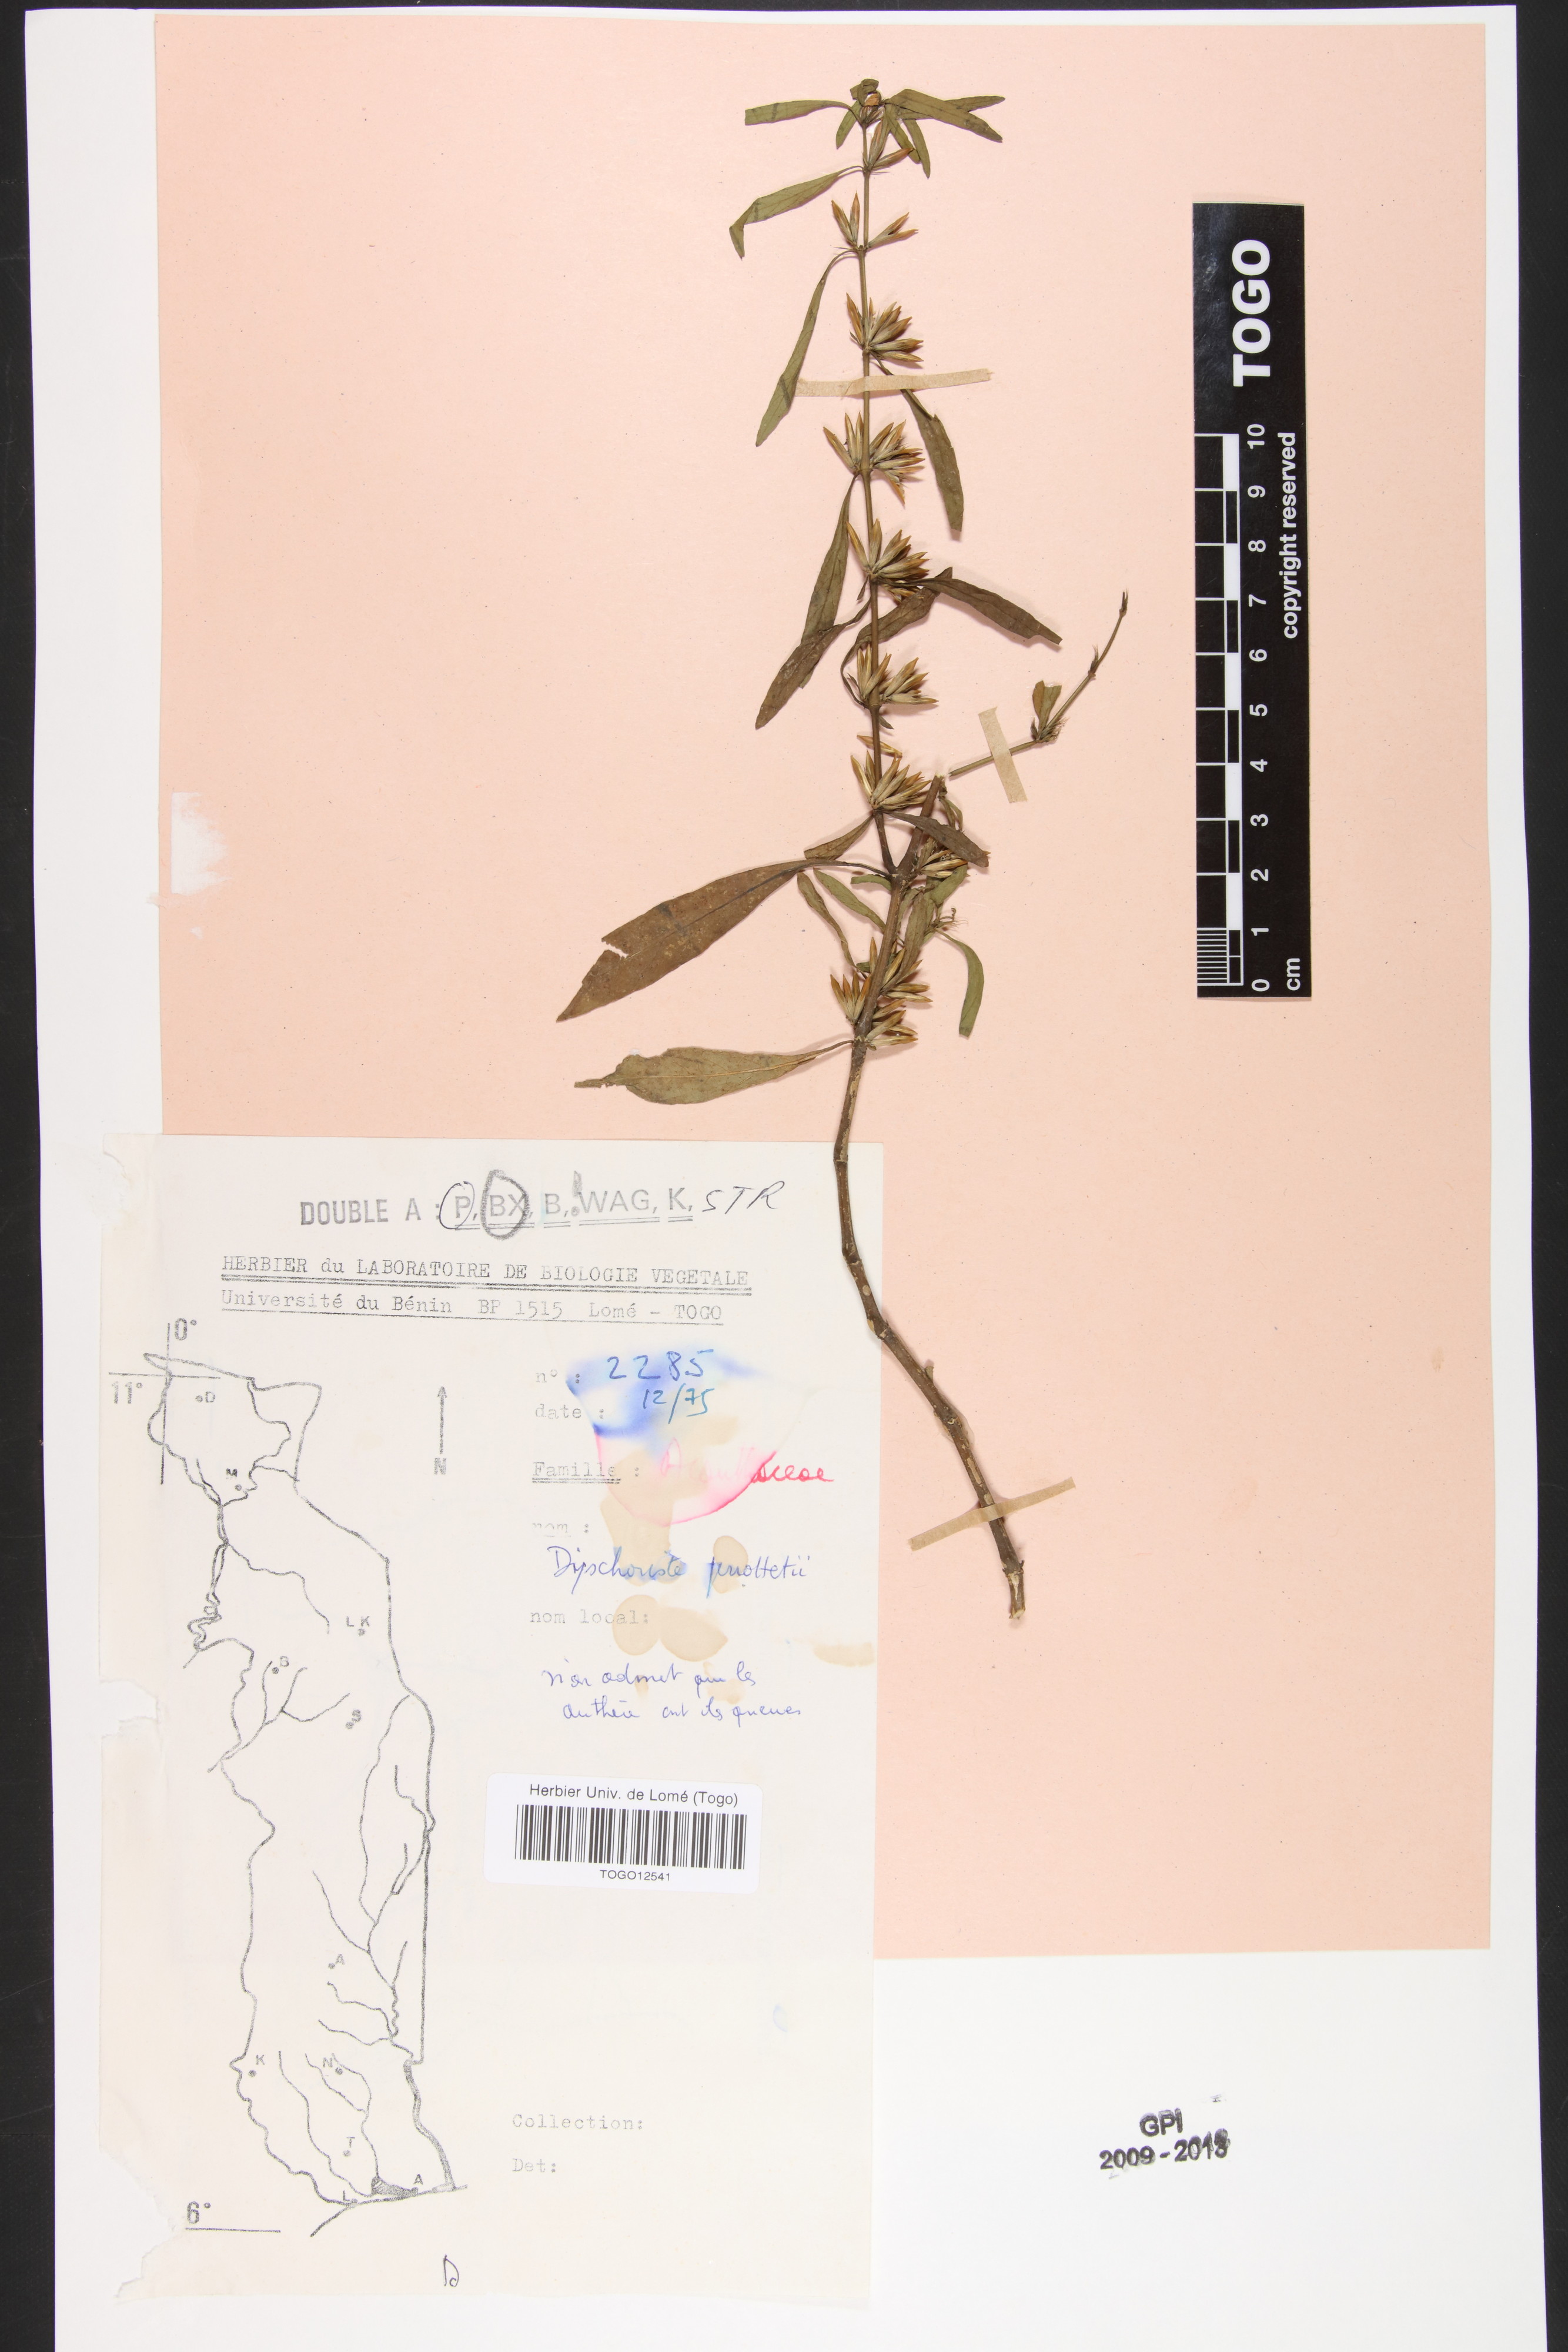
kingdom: Plantae
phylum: Tracheophyta
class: Magnoliopsida
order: Lamiales
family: Acanthaceae
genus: Dyschoriste
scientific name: Dyschoriste nagchana
